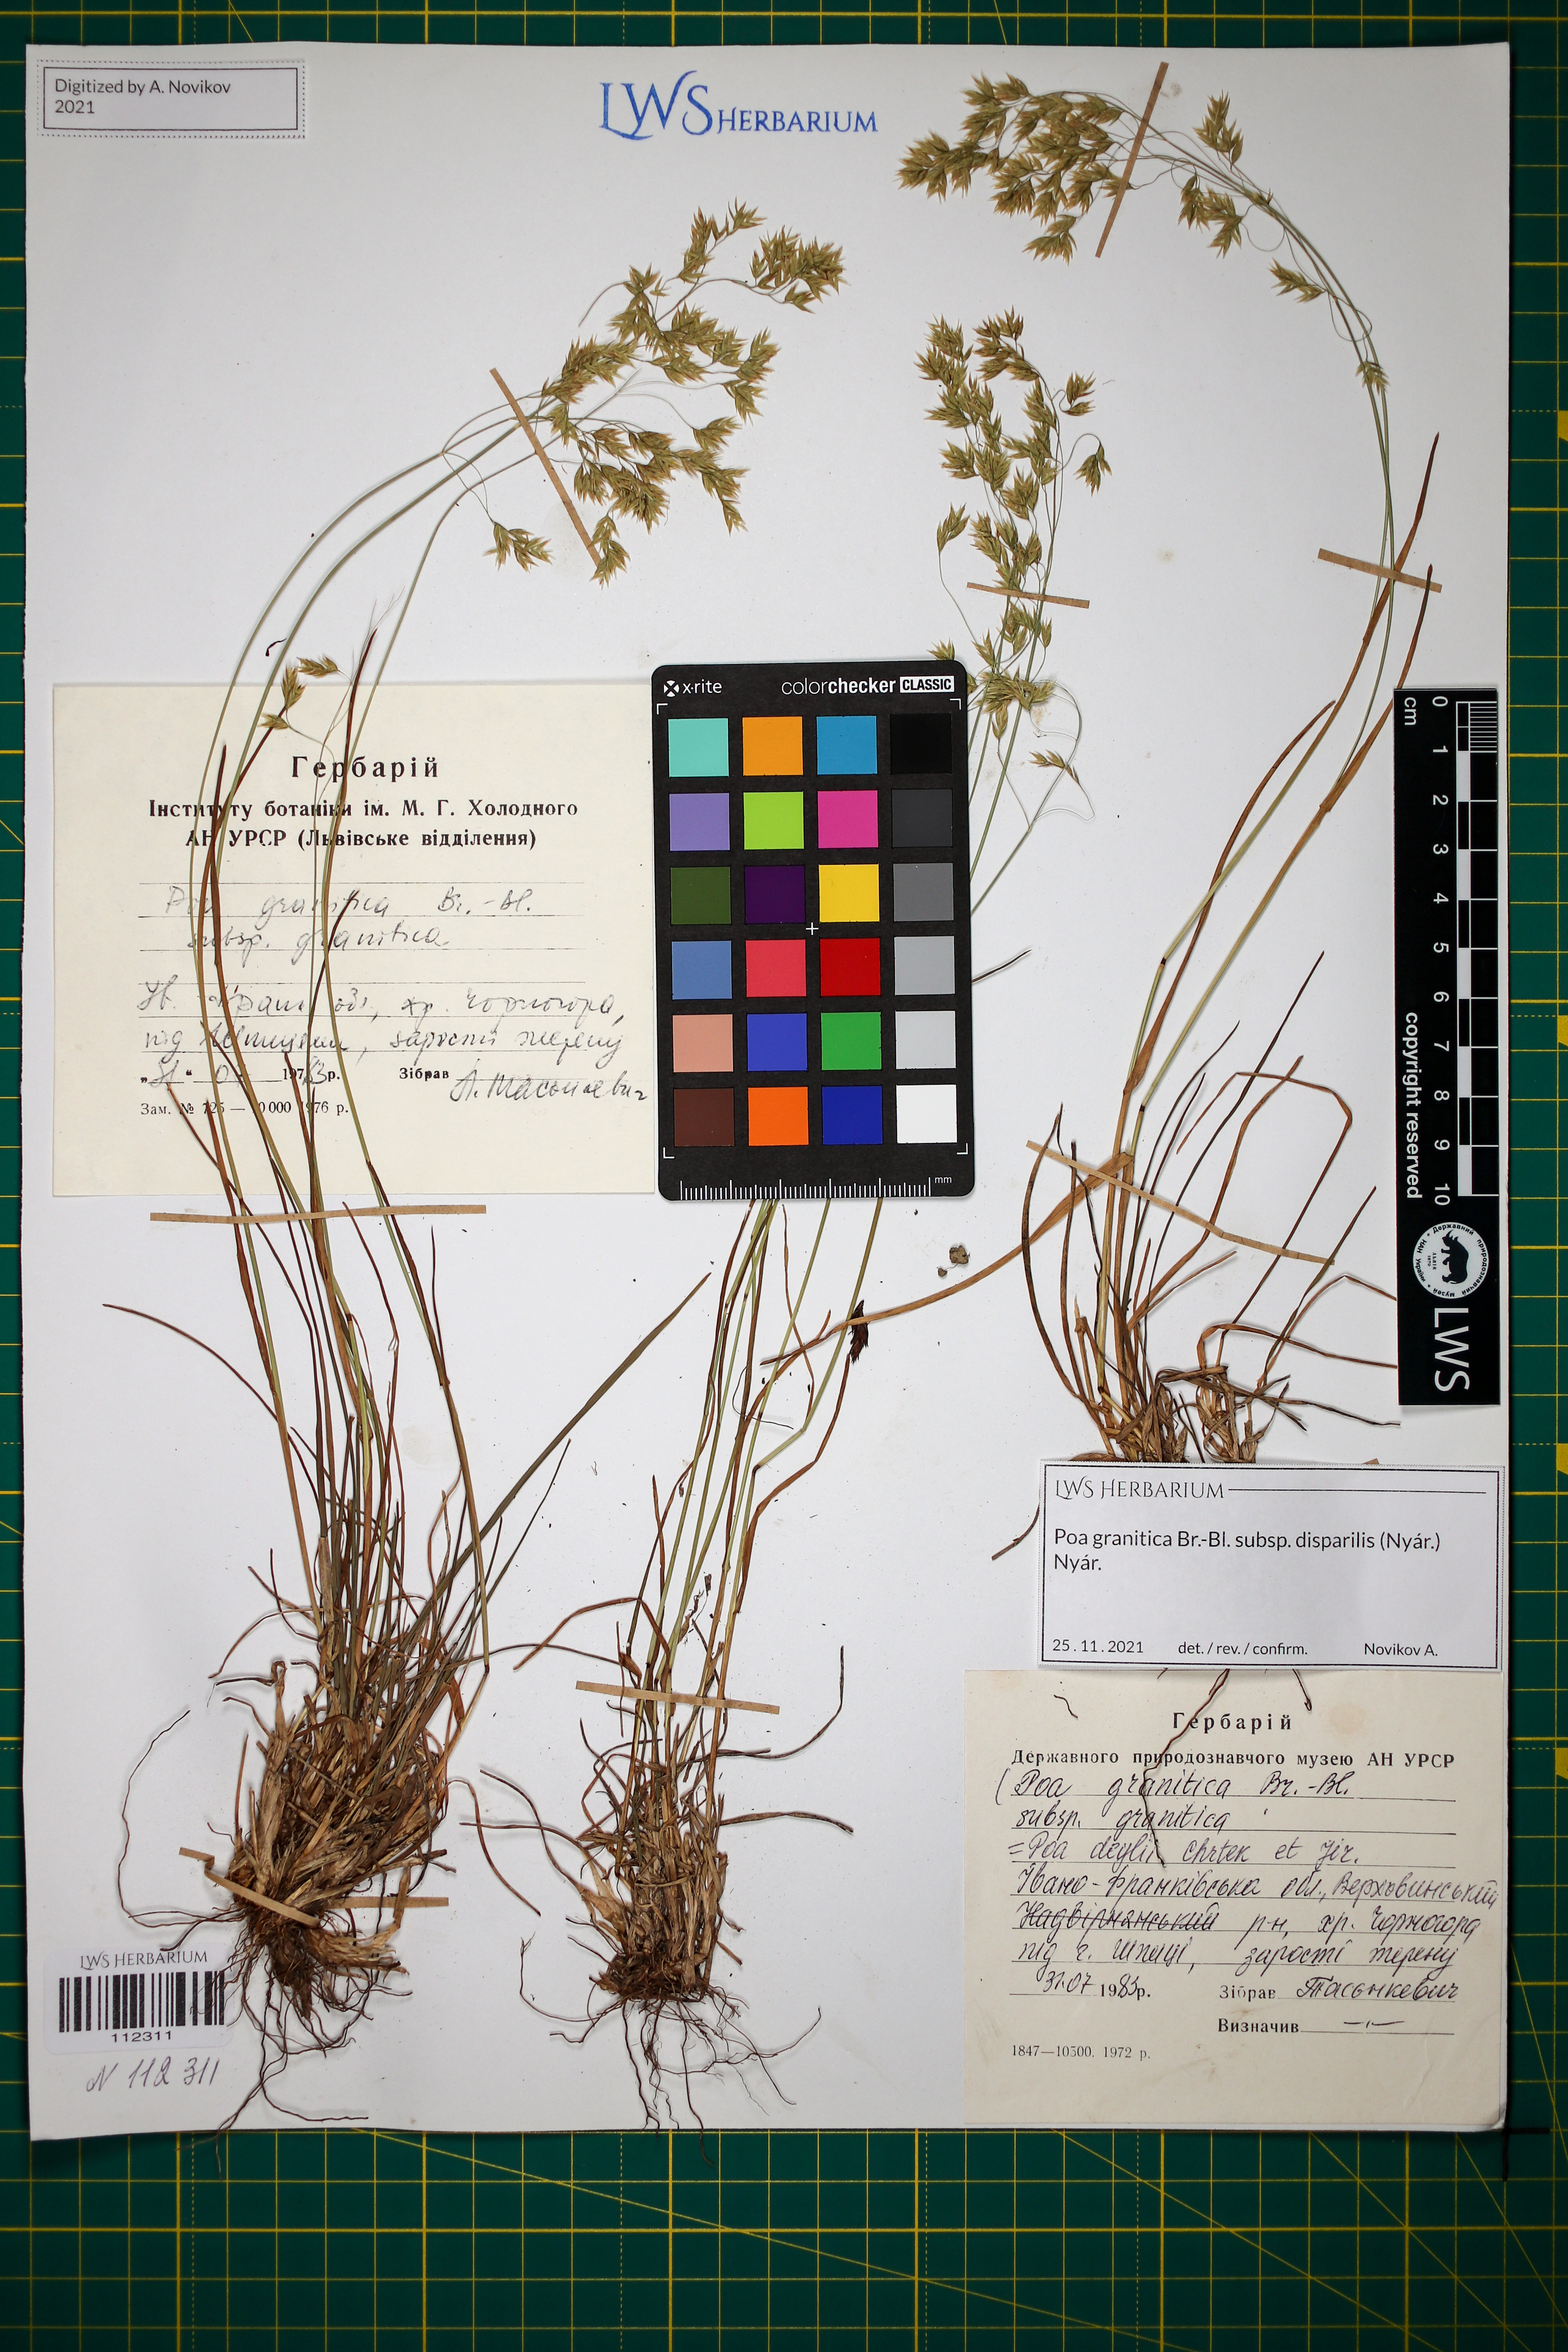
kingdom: Plantae
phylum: Tracheophyta
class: Liliopsida
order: Poales
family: Poaceae
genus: Poa
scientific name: Poa granitica
